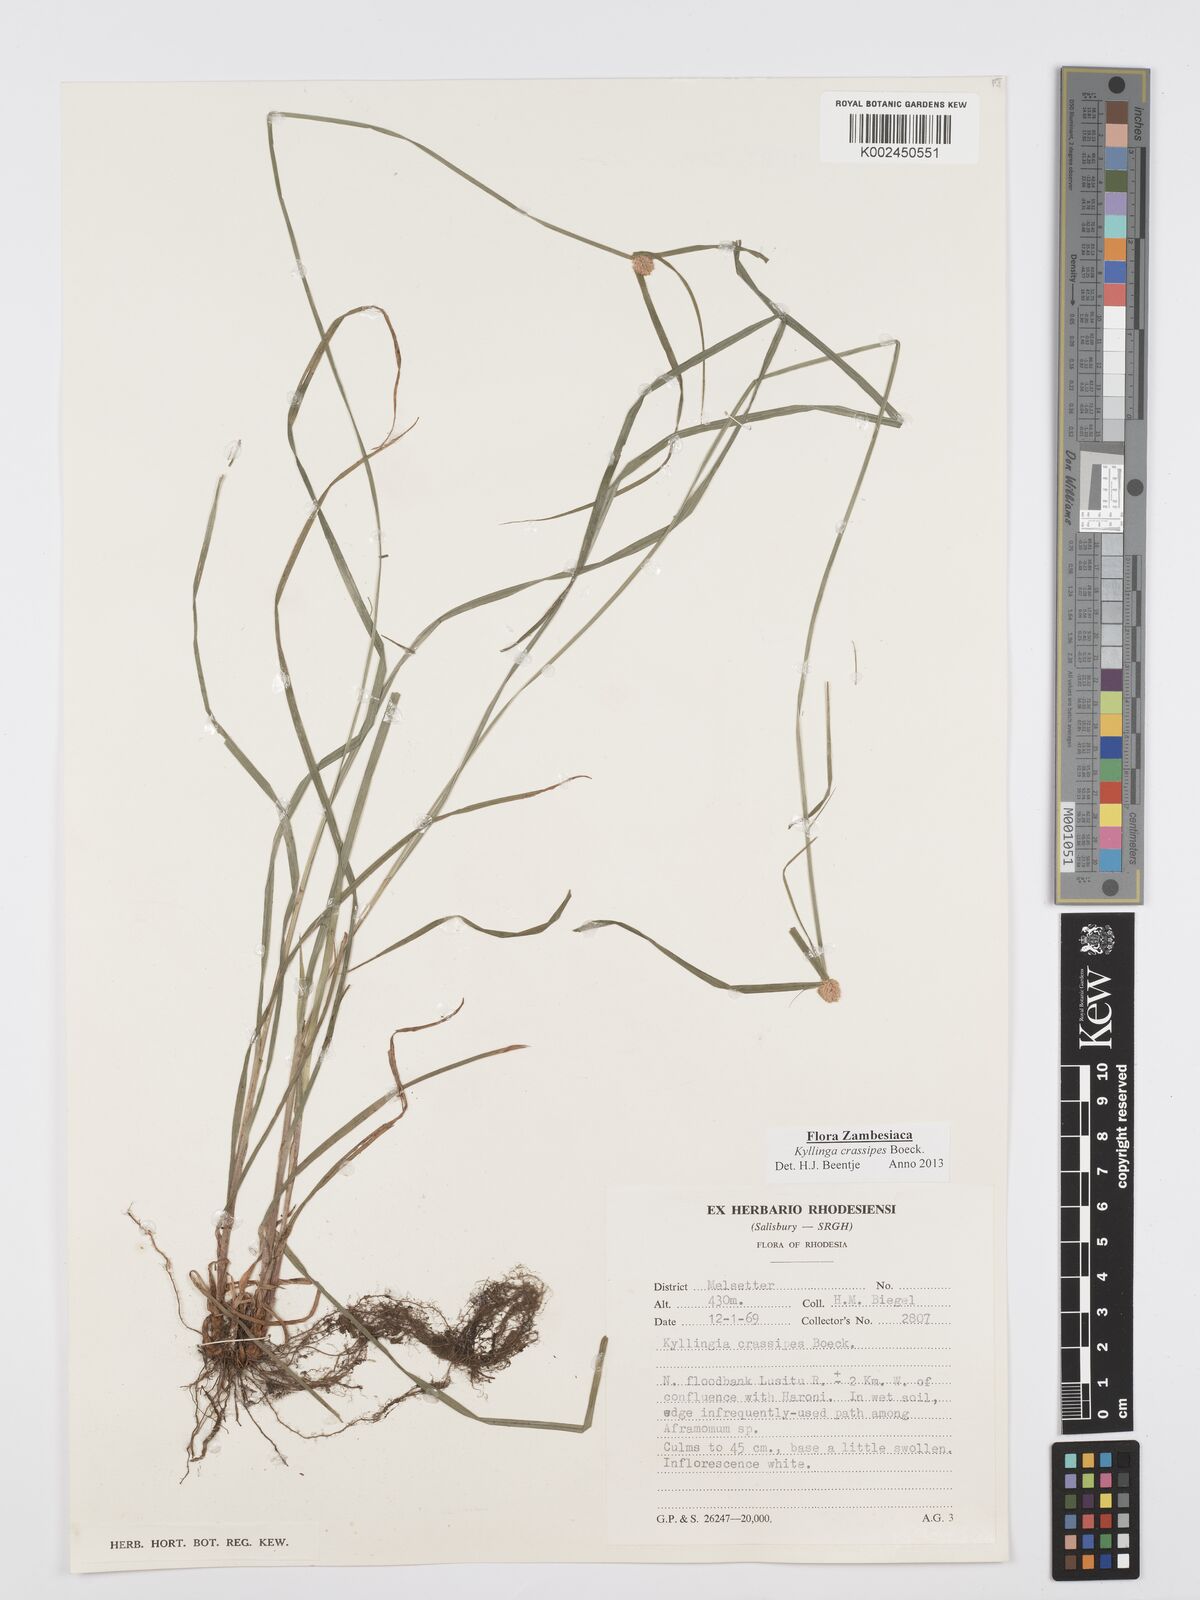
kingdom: Plantae
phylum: Tracheophyta
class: Liliopsida
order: Poales
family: Cyperaceae
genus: Cyperus
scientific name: Cyperus crassipes
